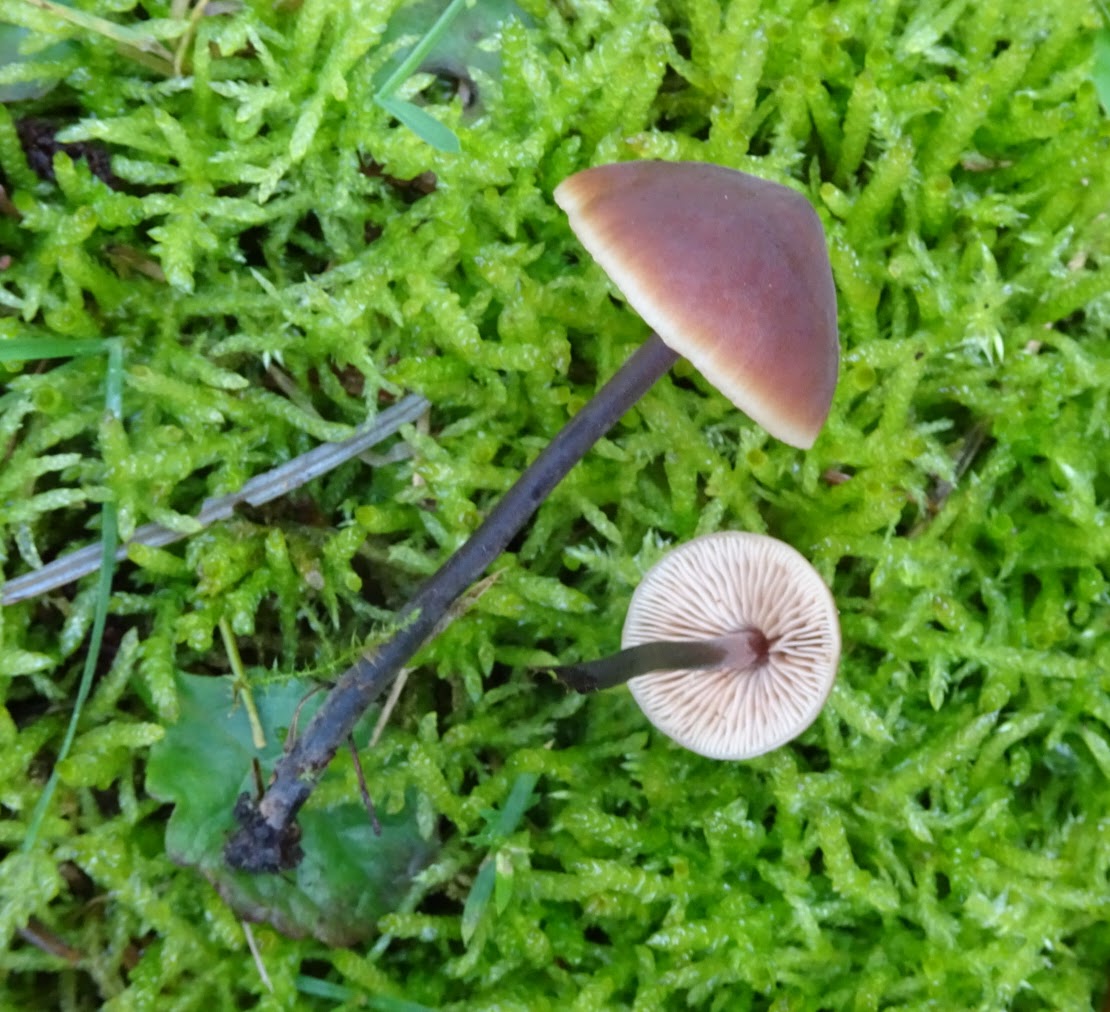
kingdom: Fungi
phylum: Basidiomycota
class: Agaricomycetes
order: Agaricales
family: Macrocystidiaceae
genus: Macrocystidia
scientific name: Macrocystidia
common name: agurkehat
